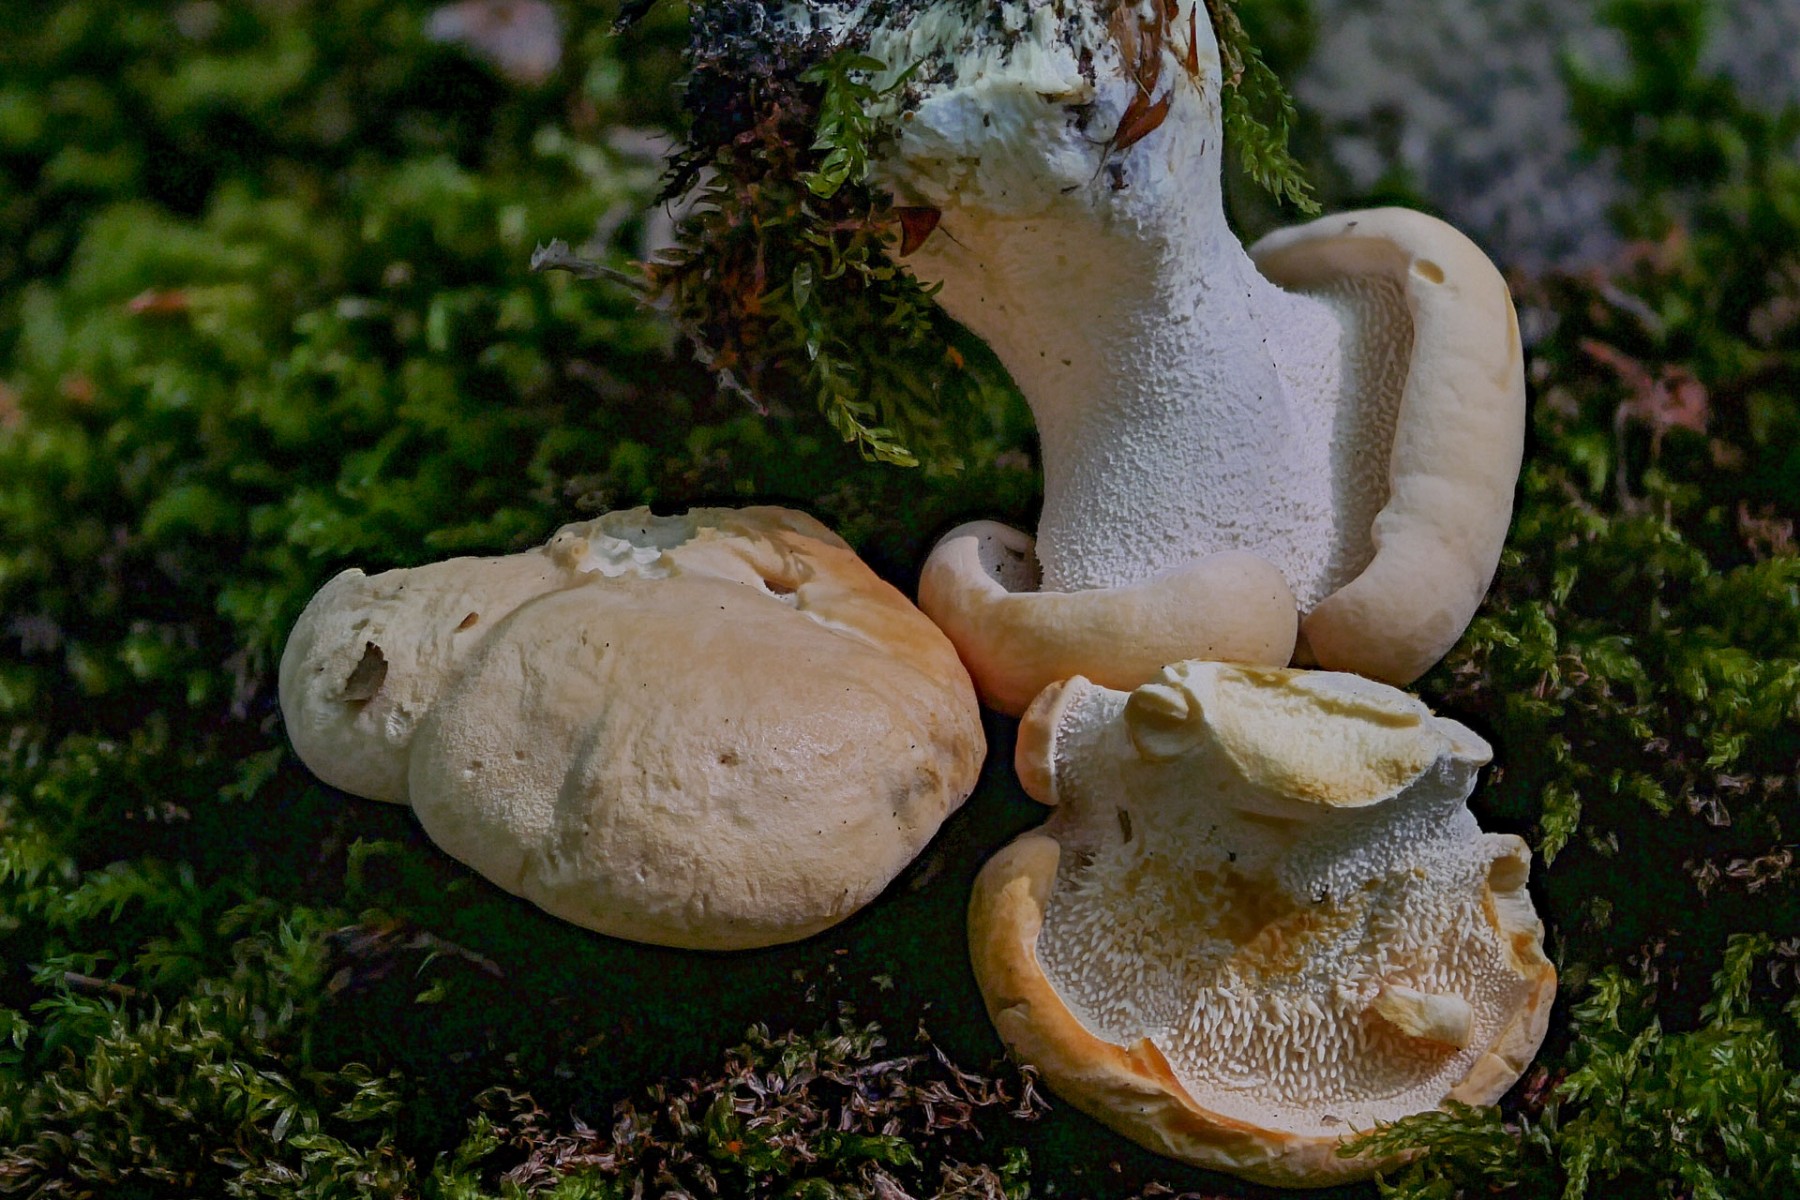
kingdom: Fungi
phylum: Basidiomycota
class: Agaricomycetes
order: Cantharellales
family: Hydnaceae
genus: Hydnum
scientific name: Hydnum repandum
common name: almindelig pigsvamp
